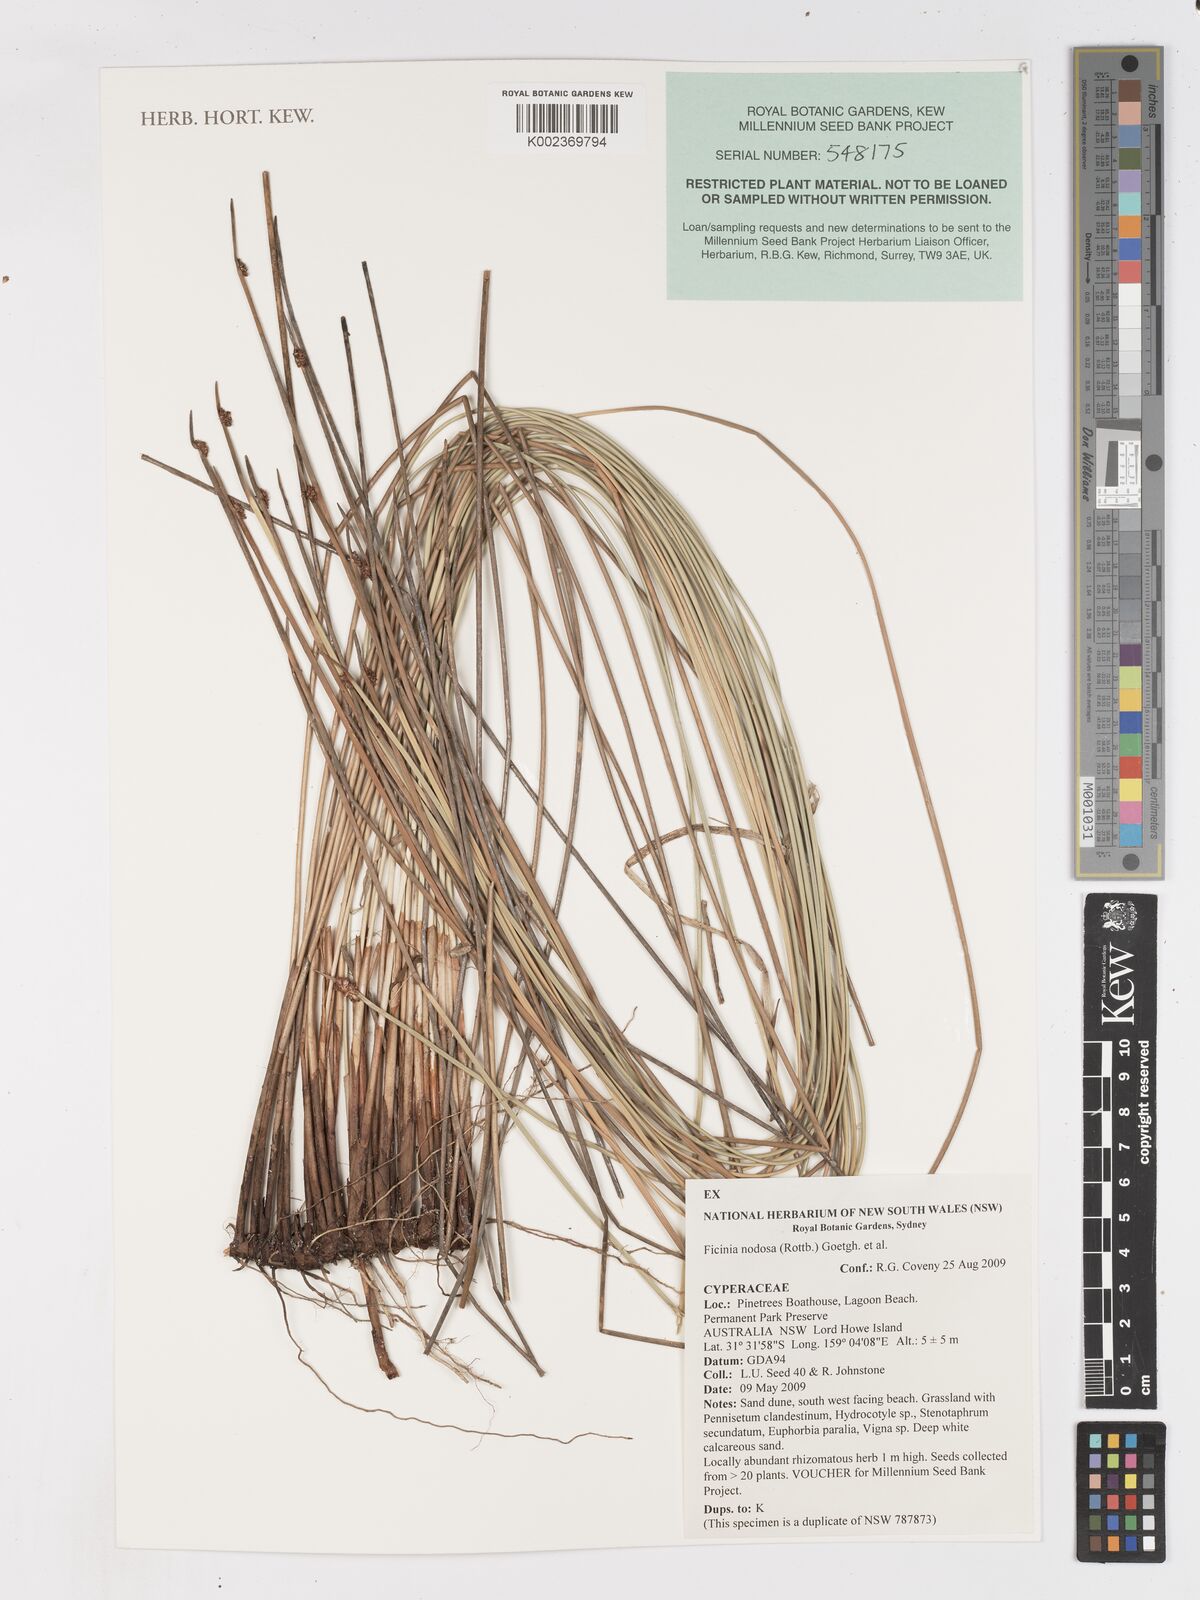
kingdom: Plantae
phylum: Tracheophyta
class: Liliopsida
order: Poales
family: Cyperaceae
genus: Ficinia
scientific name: Ficinia nodosa
